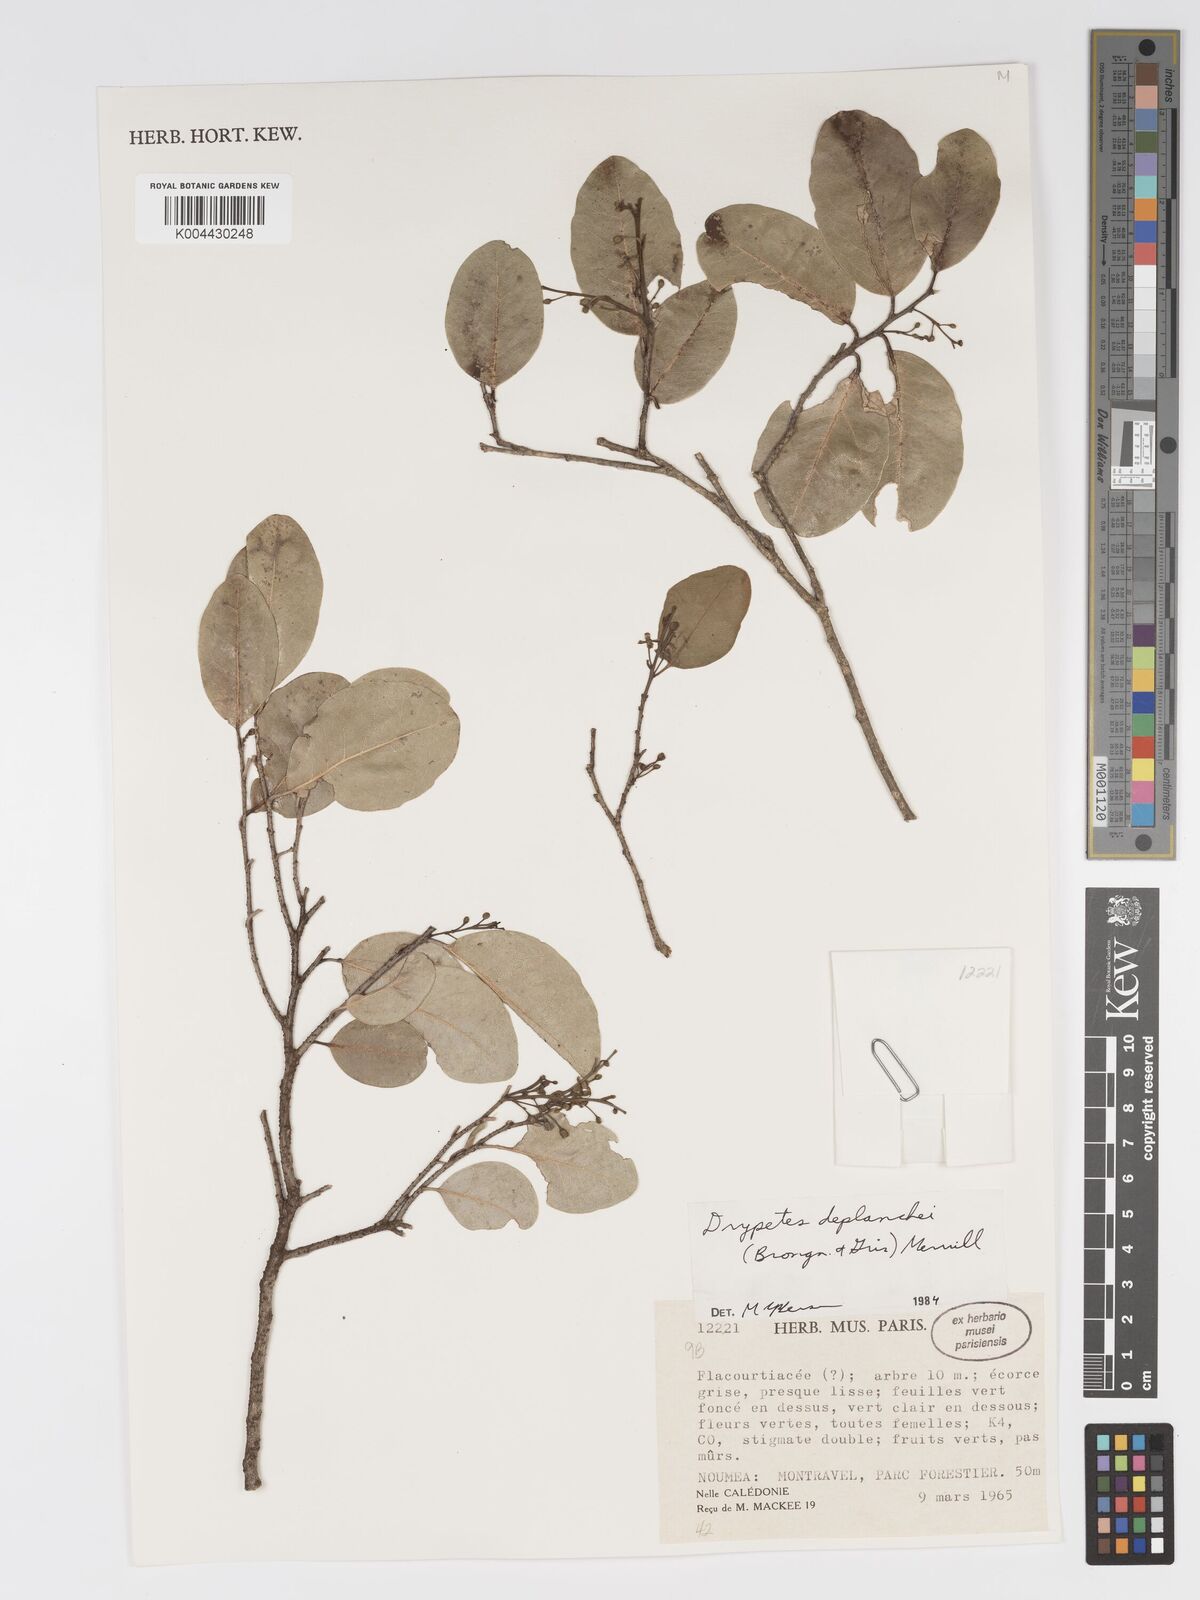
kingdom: Plantae
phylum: Tracheophyta
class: Magnoliopsida
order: Malpighiales
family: Putranjivaceae
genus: Drypetes
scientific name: Drypetes deplanchei
